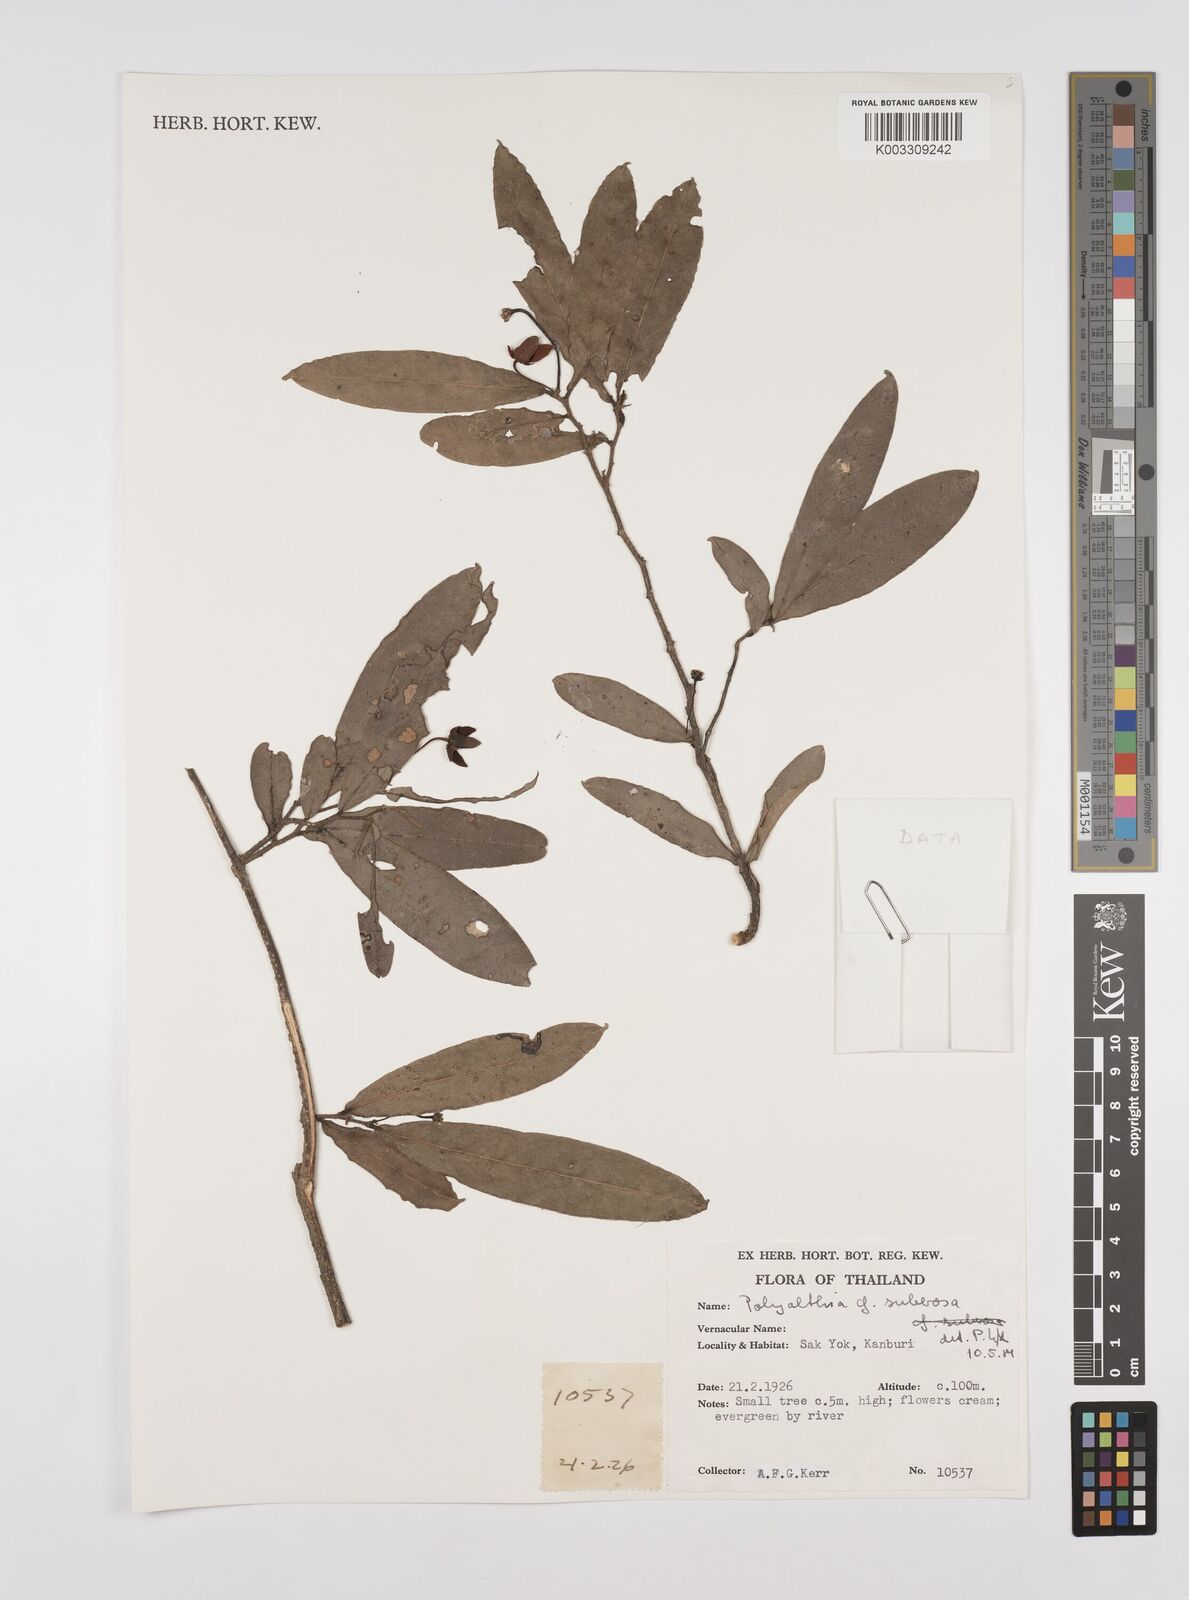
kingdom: Plantae
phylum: Tracheophyta
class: Magnoliopsida
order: Magnoliales
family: Annonaceae
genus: Polyalthia
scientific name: Polyalthia suberosa
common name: Polyalthia plant
